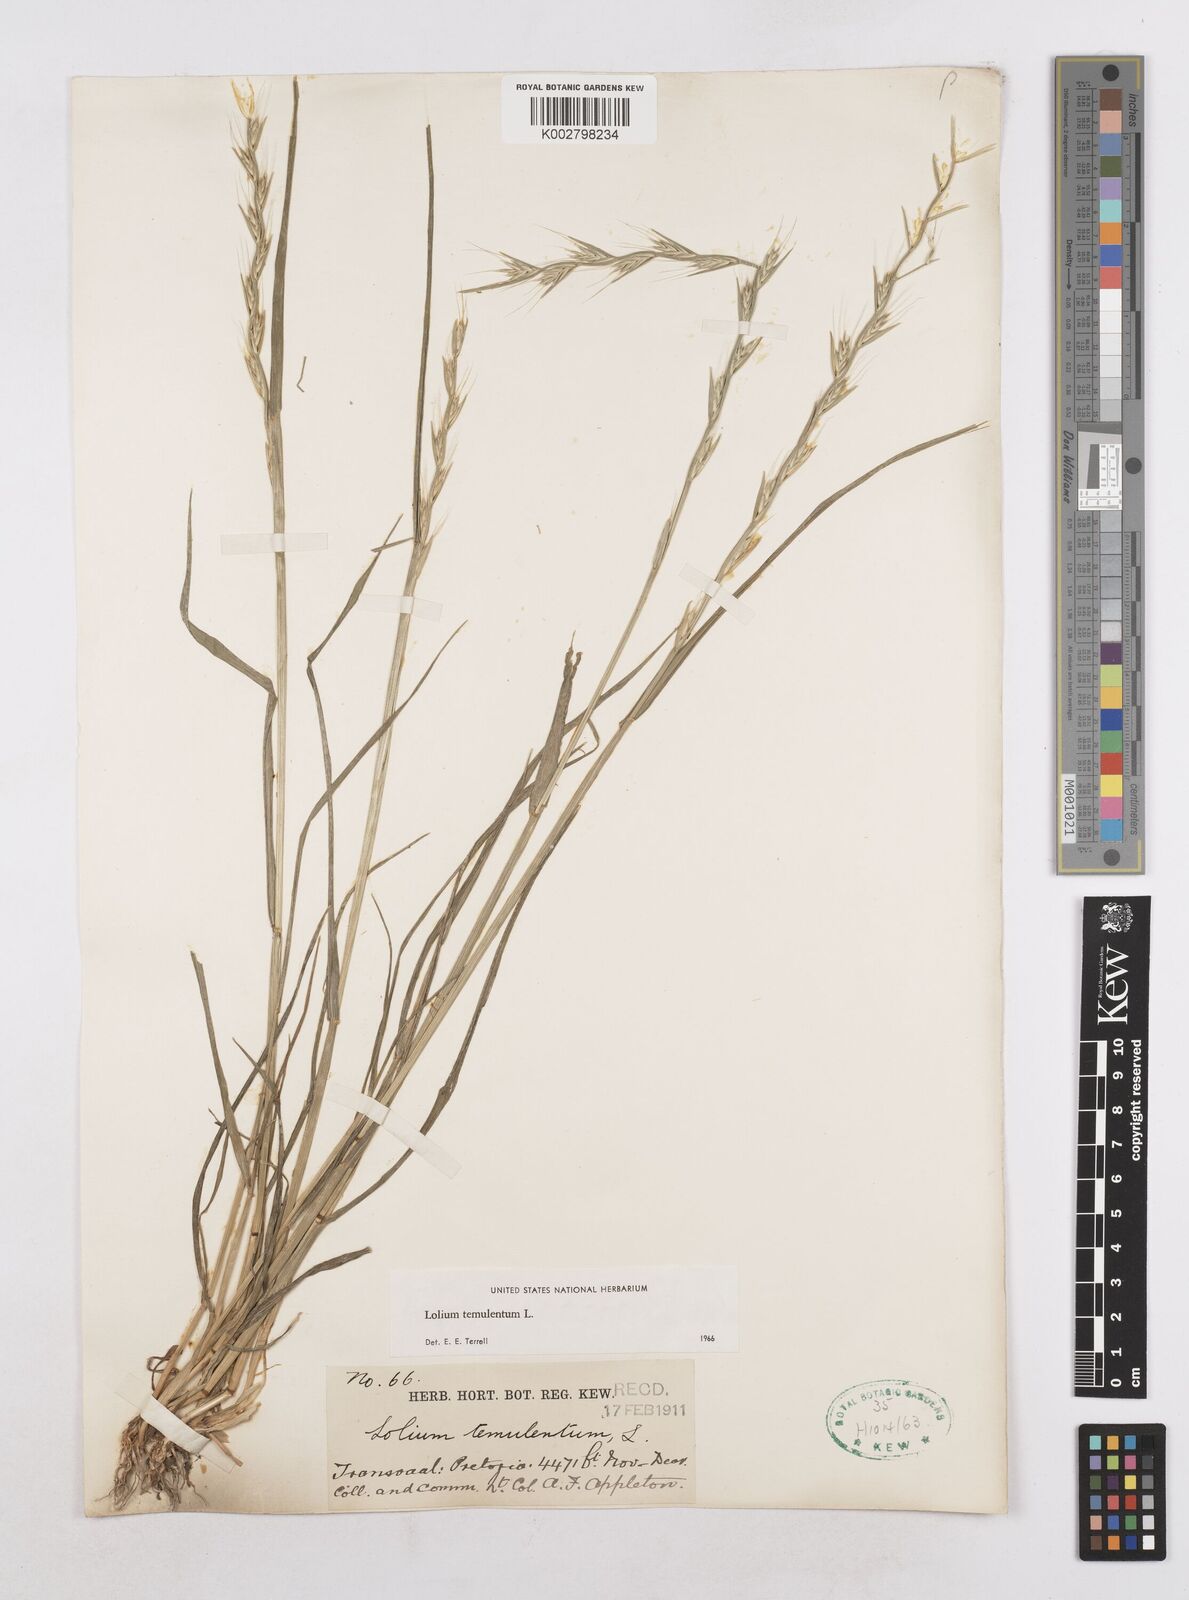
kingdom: Plantae
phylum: Tracheophyta
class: Liliopsida
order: Poales
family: Poaceae
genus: Lolium
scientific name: Lolium temulentum
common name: Darnel
